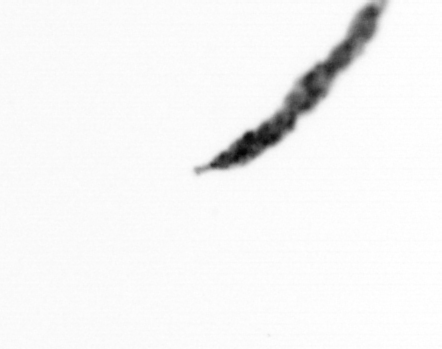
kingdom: Bacteria
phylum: Cyanobacteria
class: Cyanobacteriia
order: Cyanobacteriales
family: Microcoleaceae
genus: Trichodesmium
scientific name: Trichodesmium
